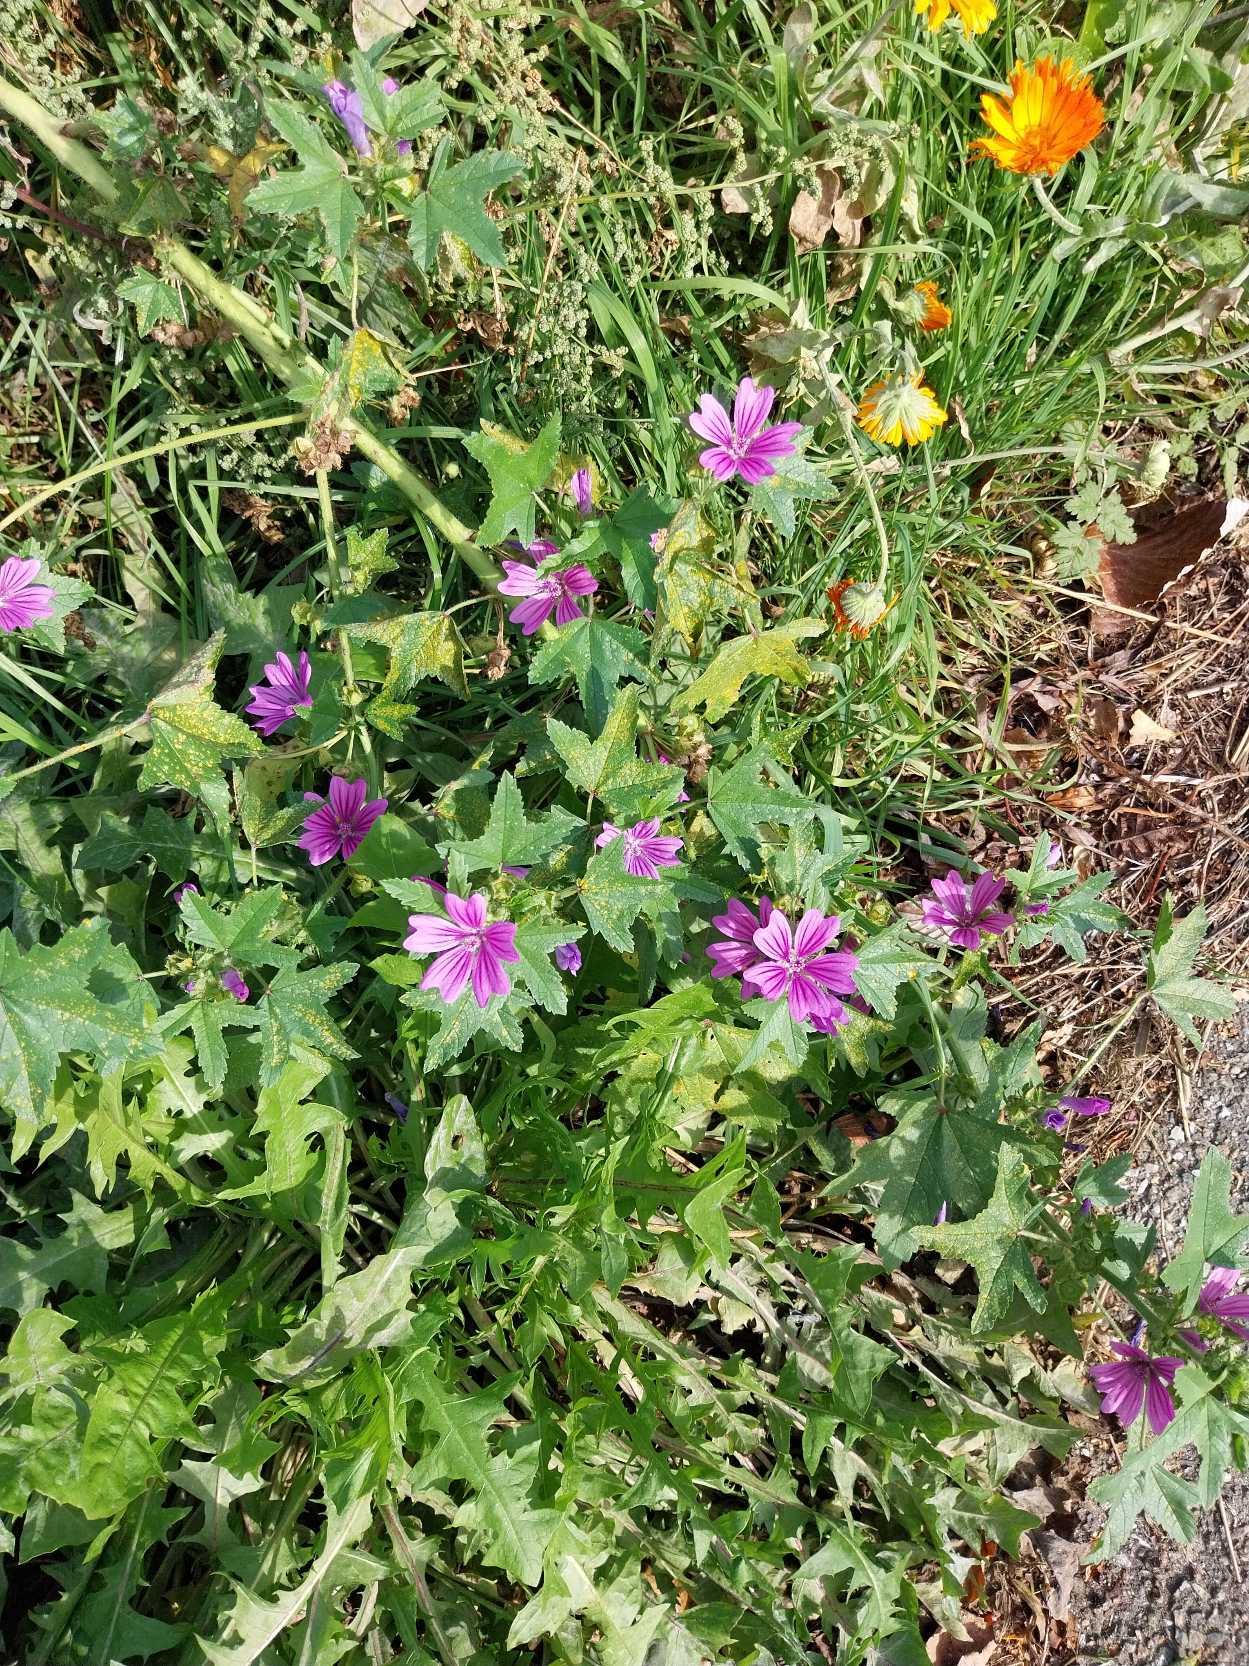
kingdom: Plantae
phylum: Tracheophyta
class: Magnoliopsida
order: Malvales
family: Malvaceae
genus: Malva
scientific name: Malva sylvestris
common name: Almindelig katost
